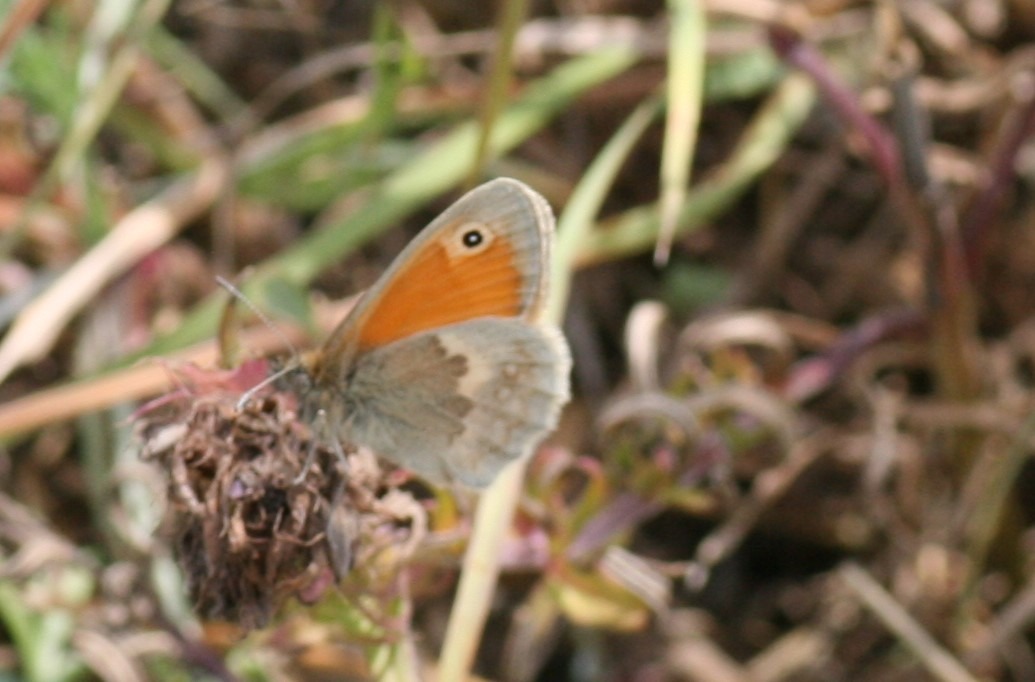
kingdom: Animalia
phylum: Arthropoda
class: Insecta
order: Lepidoptera
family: Nymphalidae
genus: Coenonympha
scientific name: Coenonympha pamphilus
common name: Okkergul randøje
